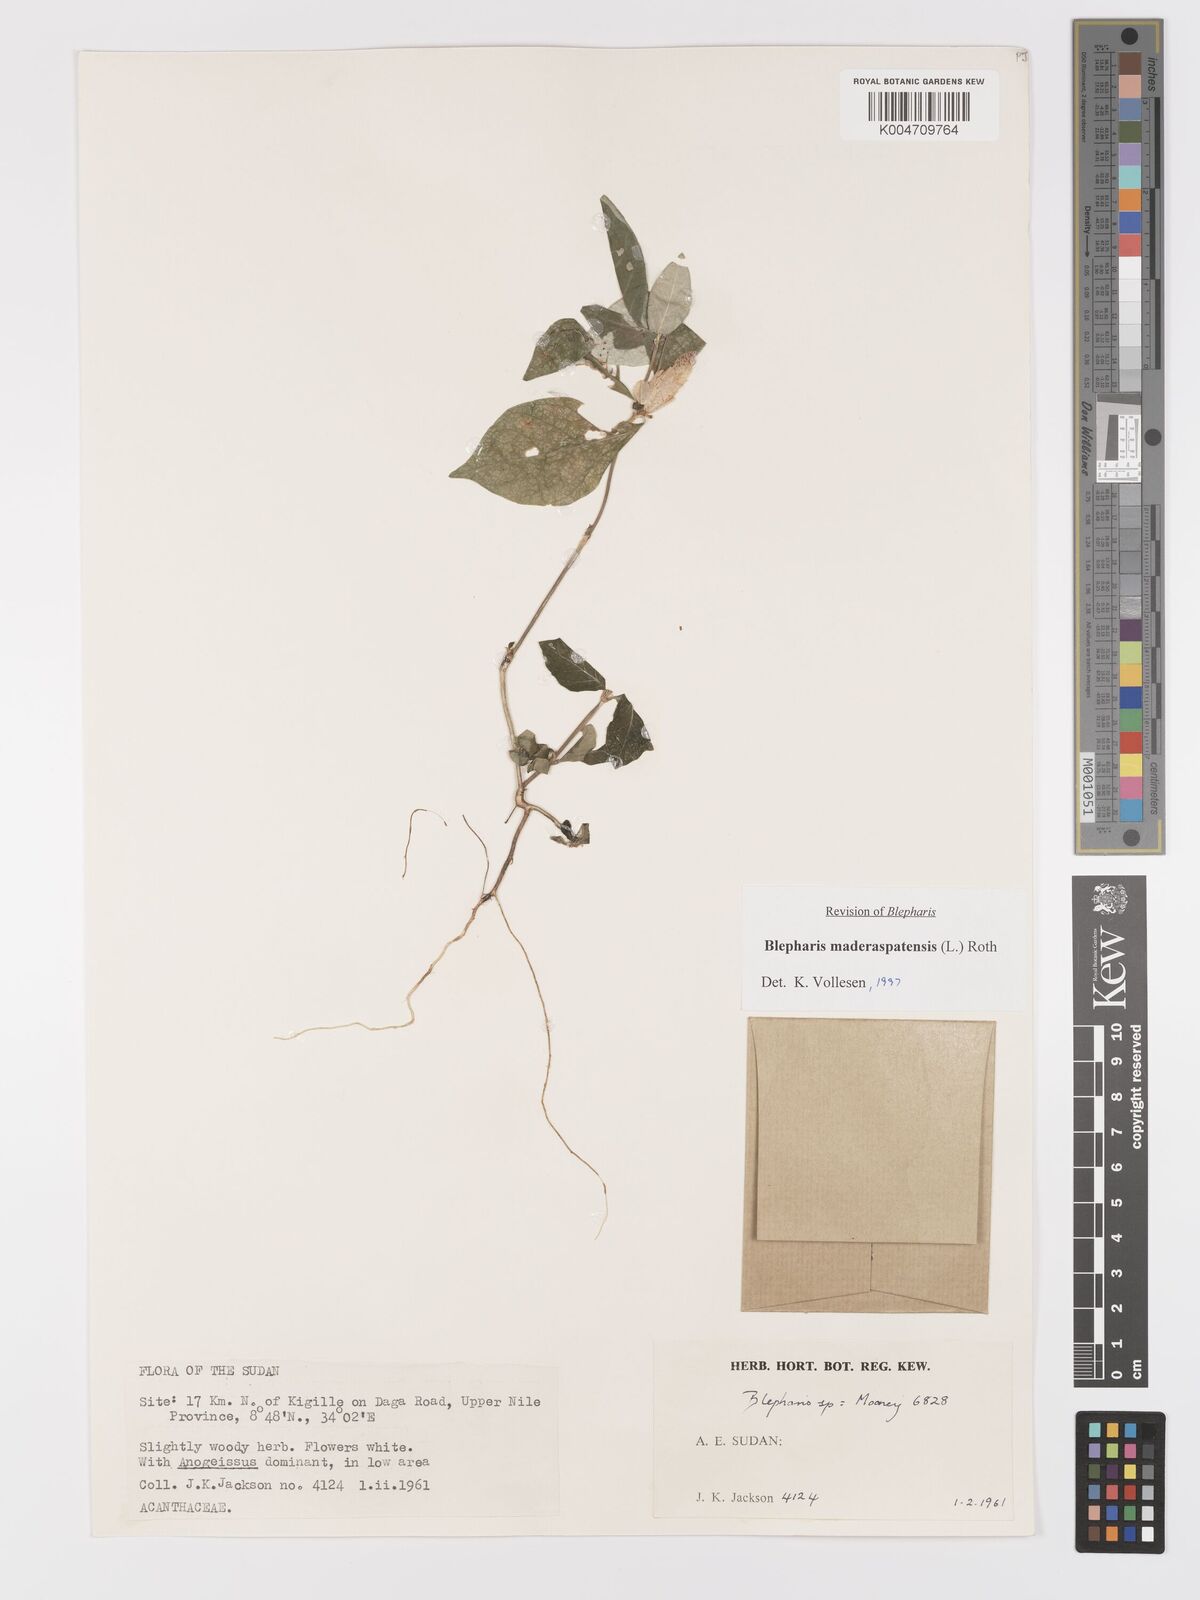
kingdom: Plantae
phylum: Tracheophyta
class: Magnoliopsida
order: Lamiales
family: Acanthaceae
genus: Blepharis
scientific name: Blepharis maderaspatensis
